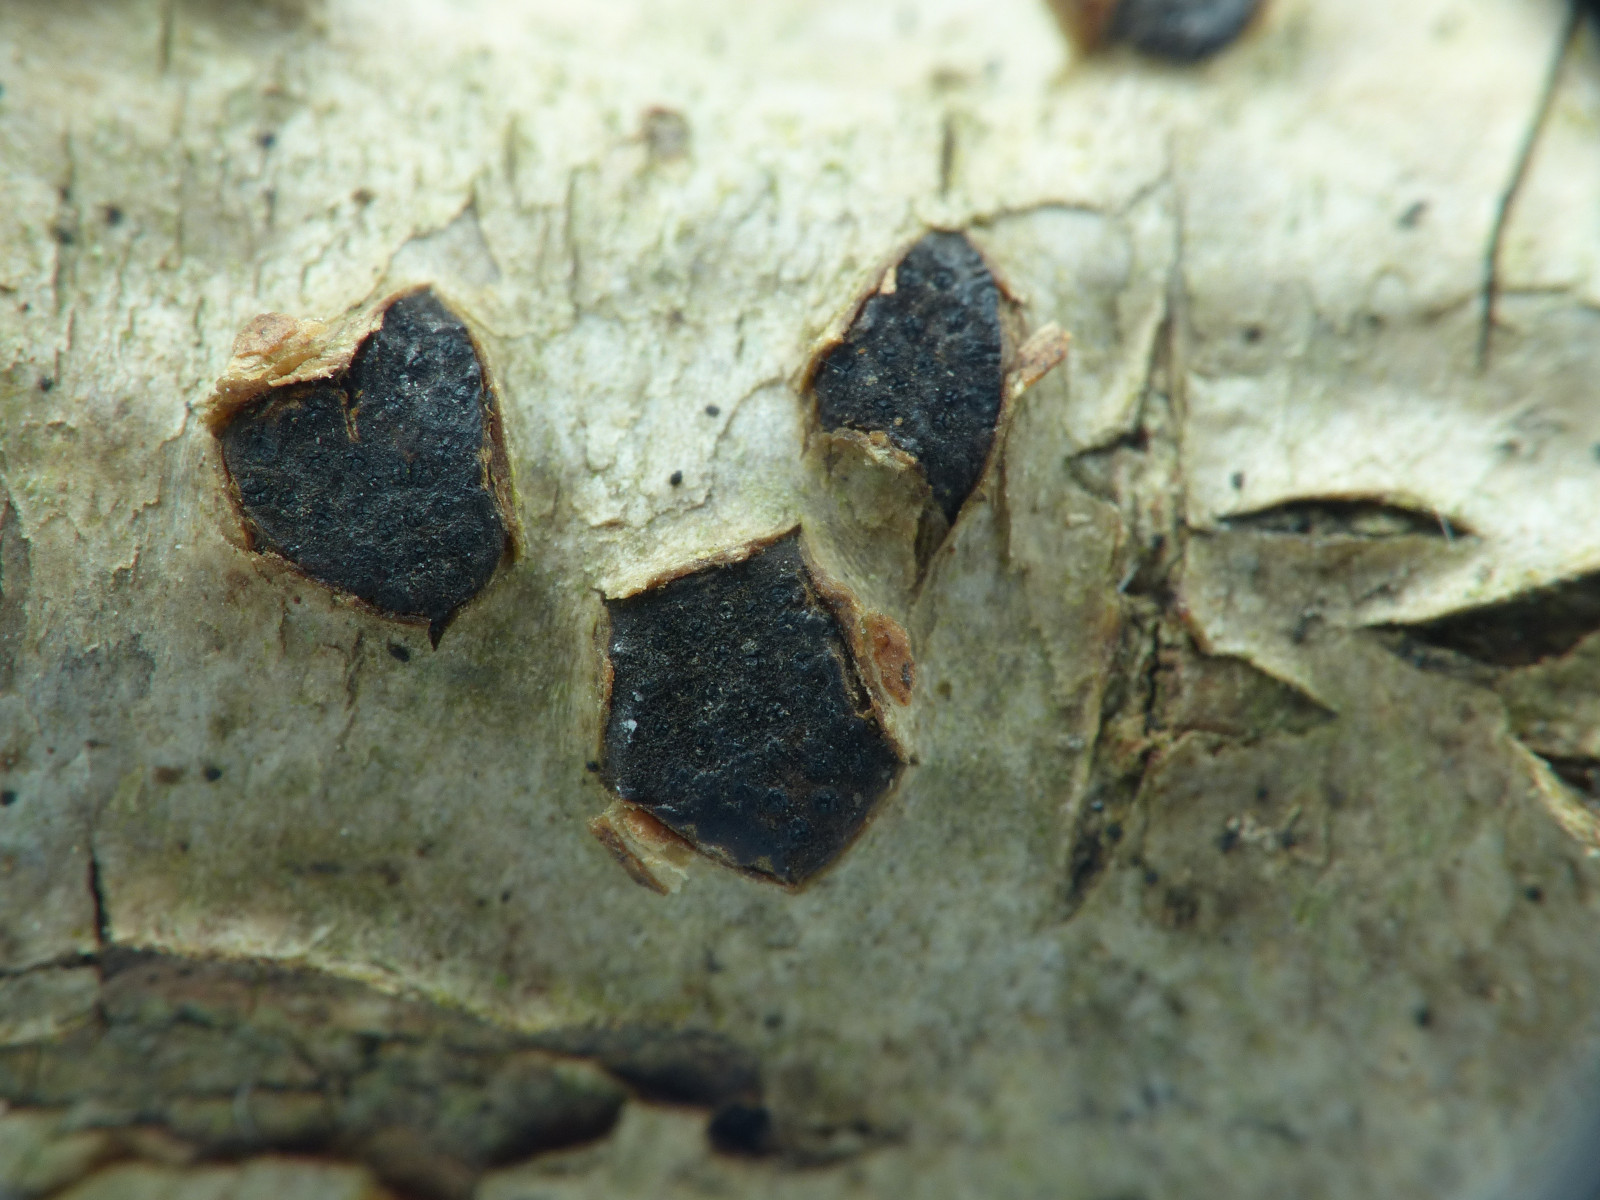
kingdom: Fungi
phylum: Ascomycota
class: Sordariomycetes
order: Xylariales
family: Diatrypaceae
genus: Diatrypella
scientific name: Diatrypella quercina
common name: ege-kulskorpe
